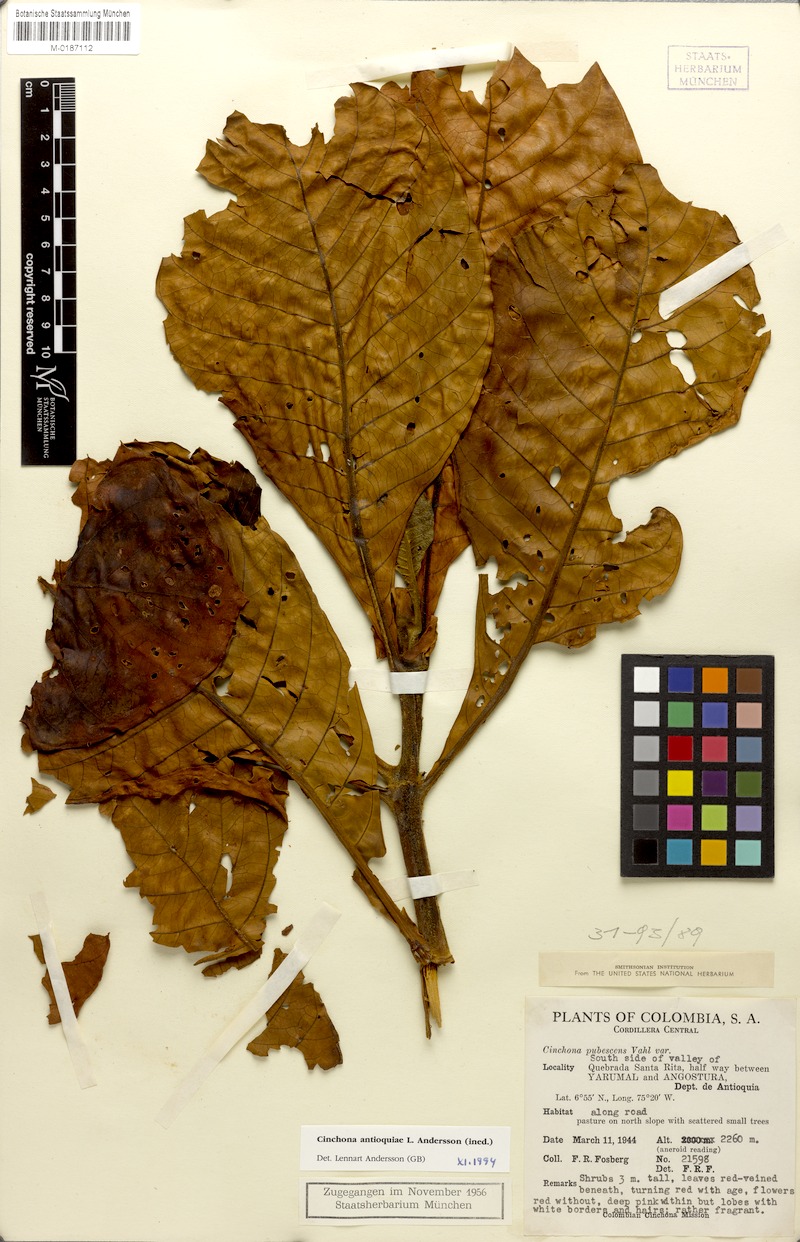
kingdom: Plantae
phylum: Tracheophyta
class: Magnoliopsida
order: Gentianales
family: Rubiaceae
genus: Cinchona
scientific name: Cinchona antioquiae
